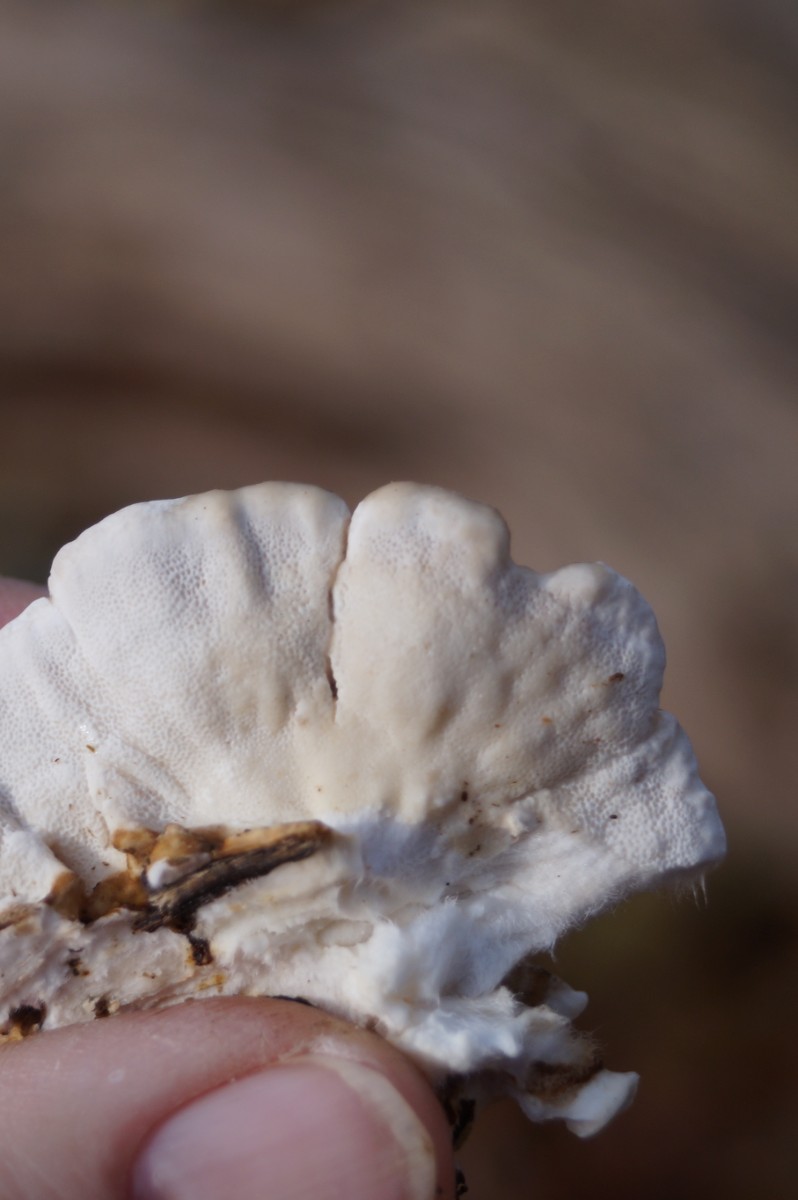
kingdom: Fungi
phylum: Basidiomycota
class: Agaricomycetes
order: Polyporales
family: Polyporaceae
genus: Trametes
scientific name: Trametes versicolor
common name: broget læderporesvamp
